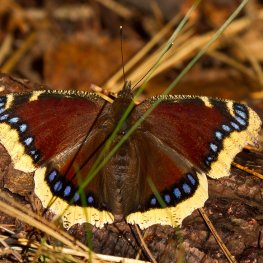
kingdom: Animalia
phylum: Arthropoda
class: Insecta
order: Lepidoptera
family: Nymphalidae
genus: Nymphalis
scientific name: Nymphalis antiopa
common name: Mourning Cloak
